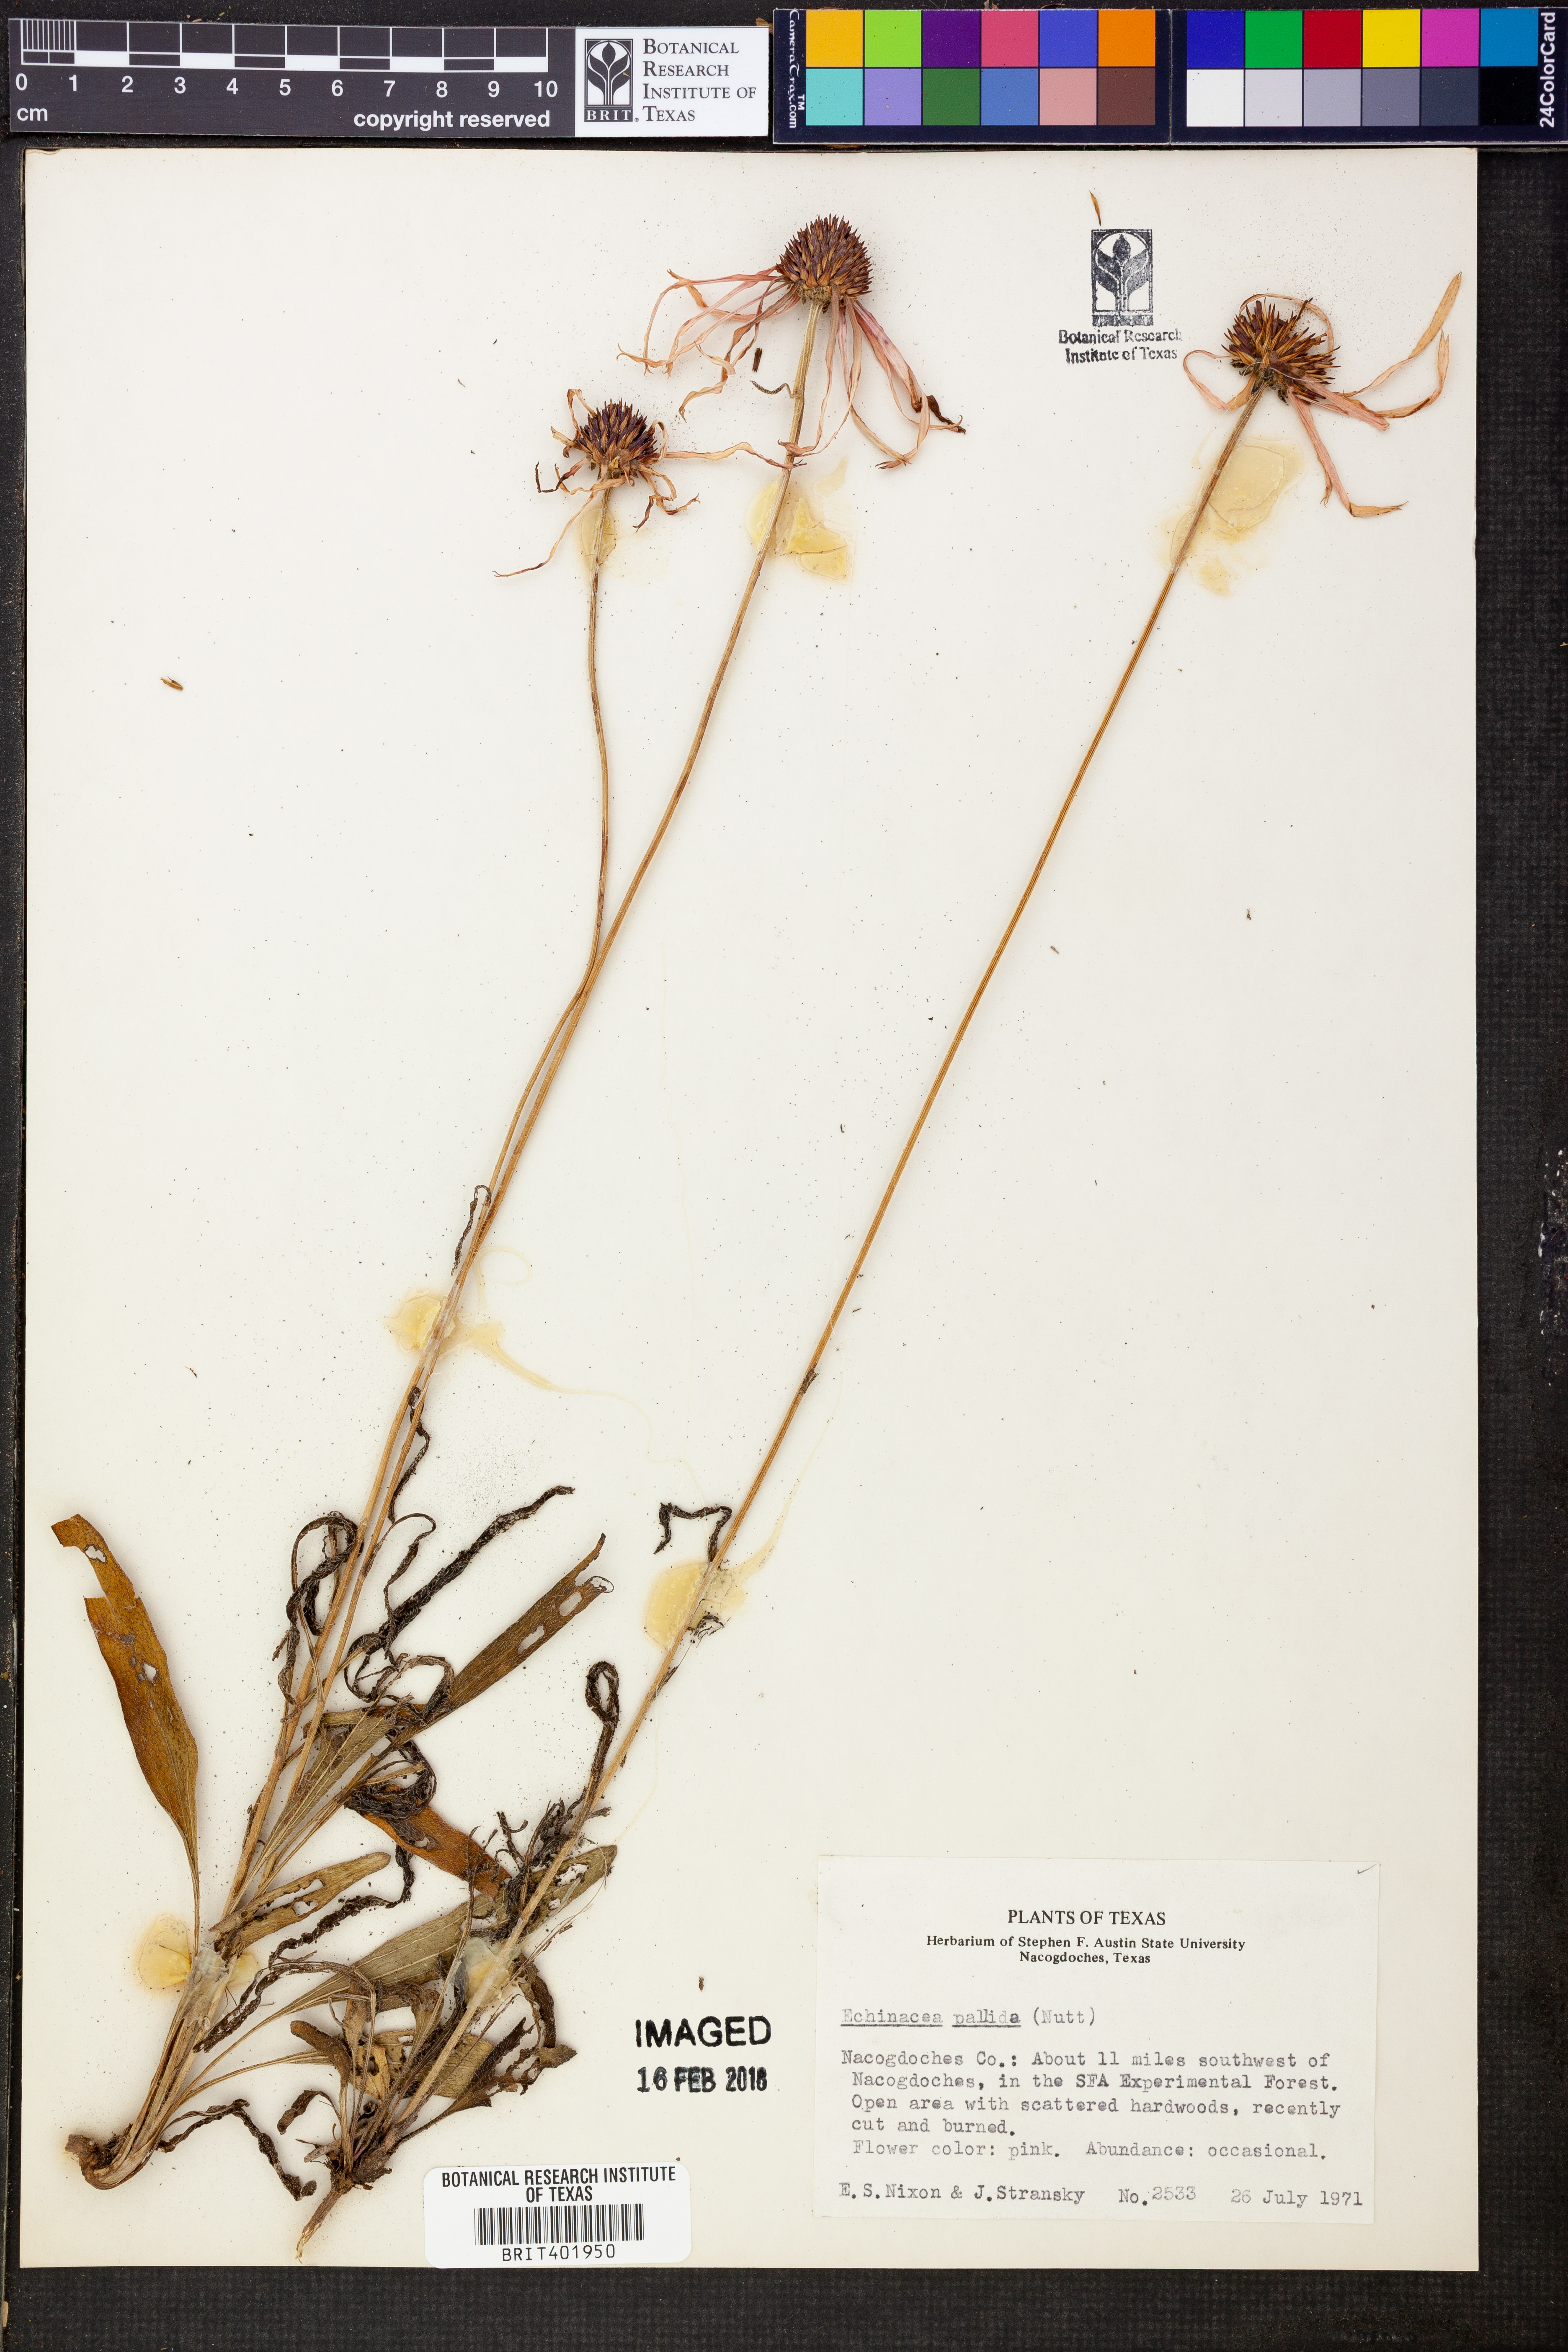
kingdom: Plantae
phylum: Tracheophyta
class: Magnoliopsida
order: Asterales
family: Asteraceae
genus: Echinacea
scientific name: Echinacea pallida
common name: Pale echinacea
